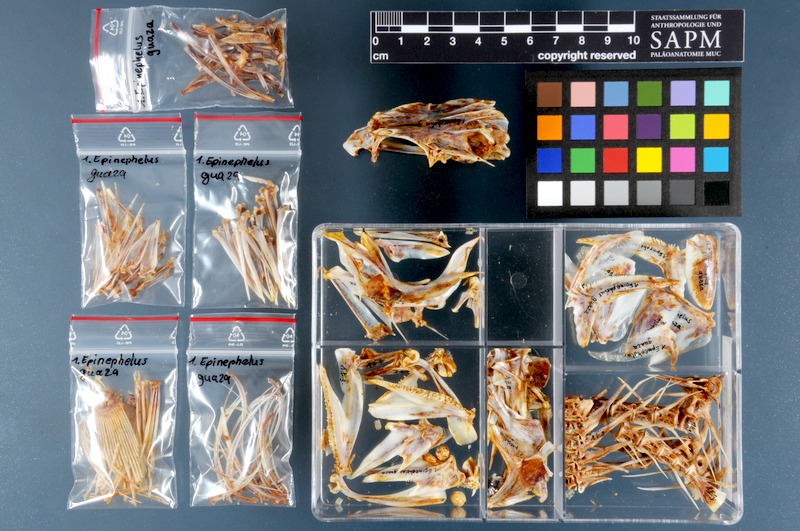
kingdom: Animalia
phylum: Chordata
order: Perciformes
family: Serranidae
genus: Epinephelus
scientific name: Epinephelus marginatus
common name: Dusky grouper
